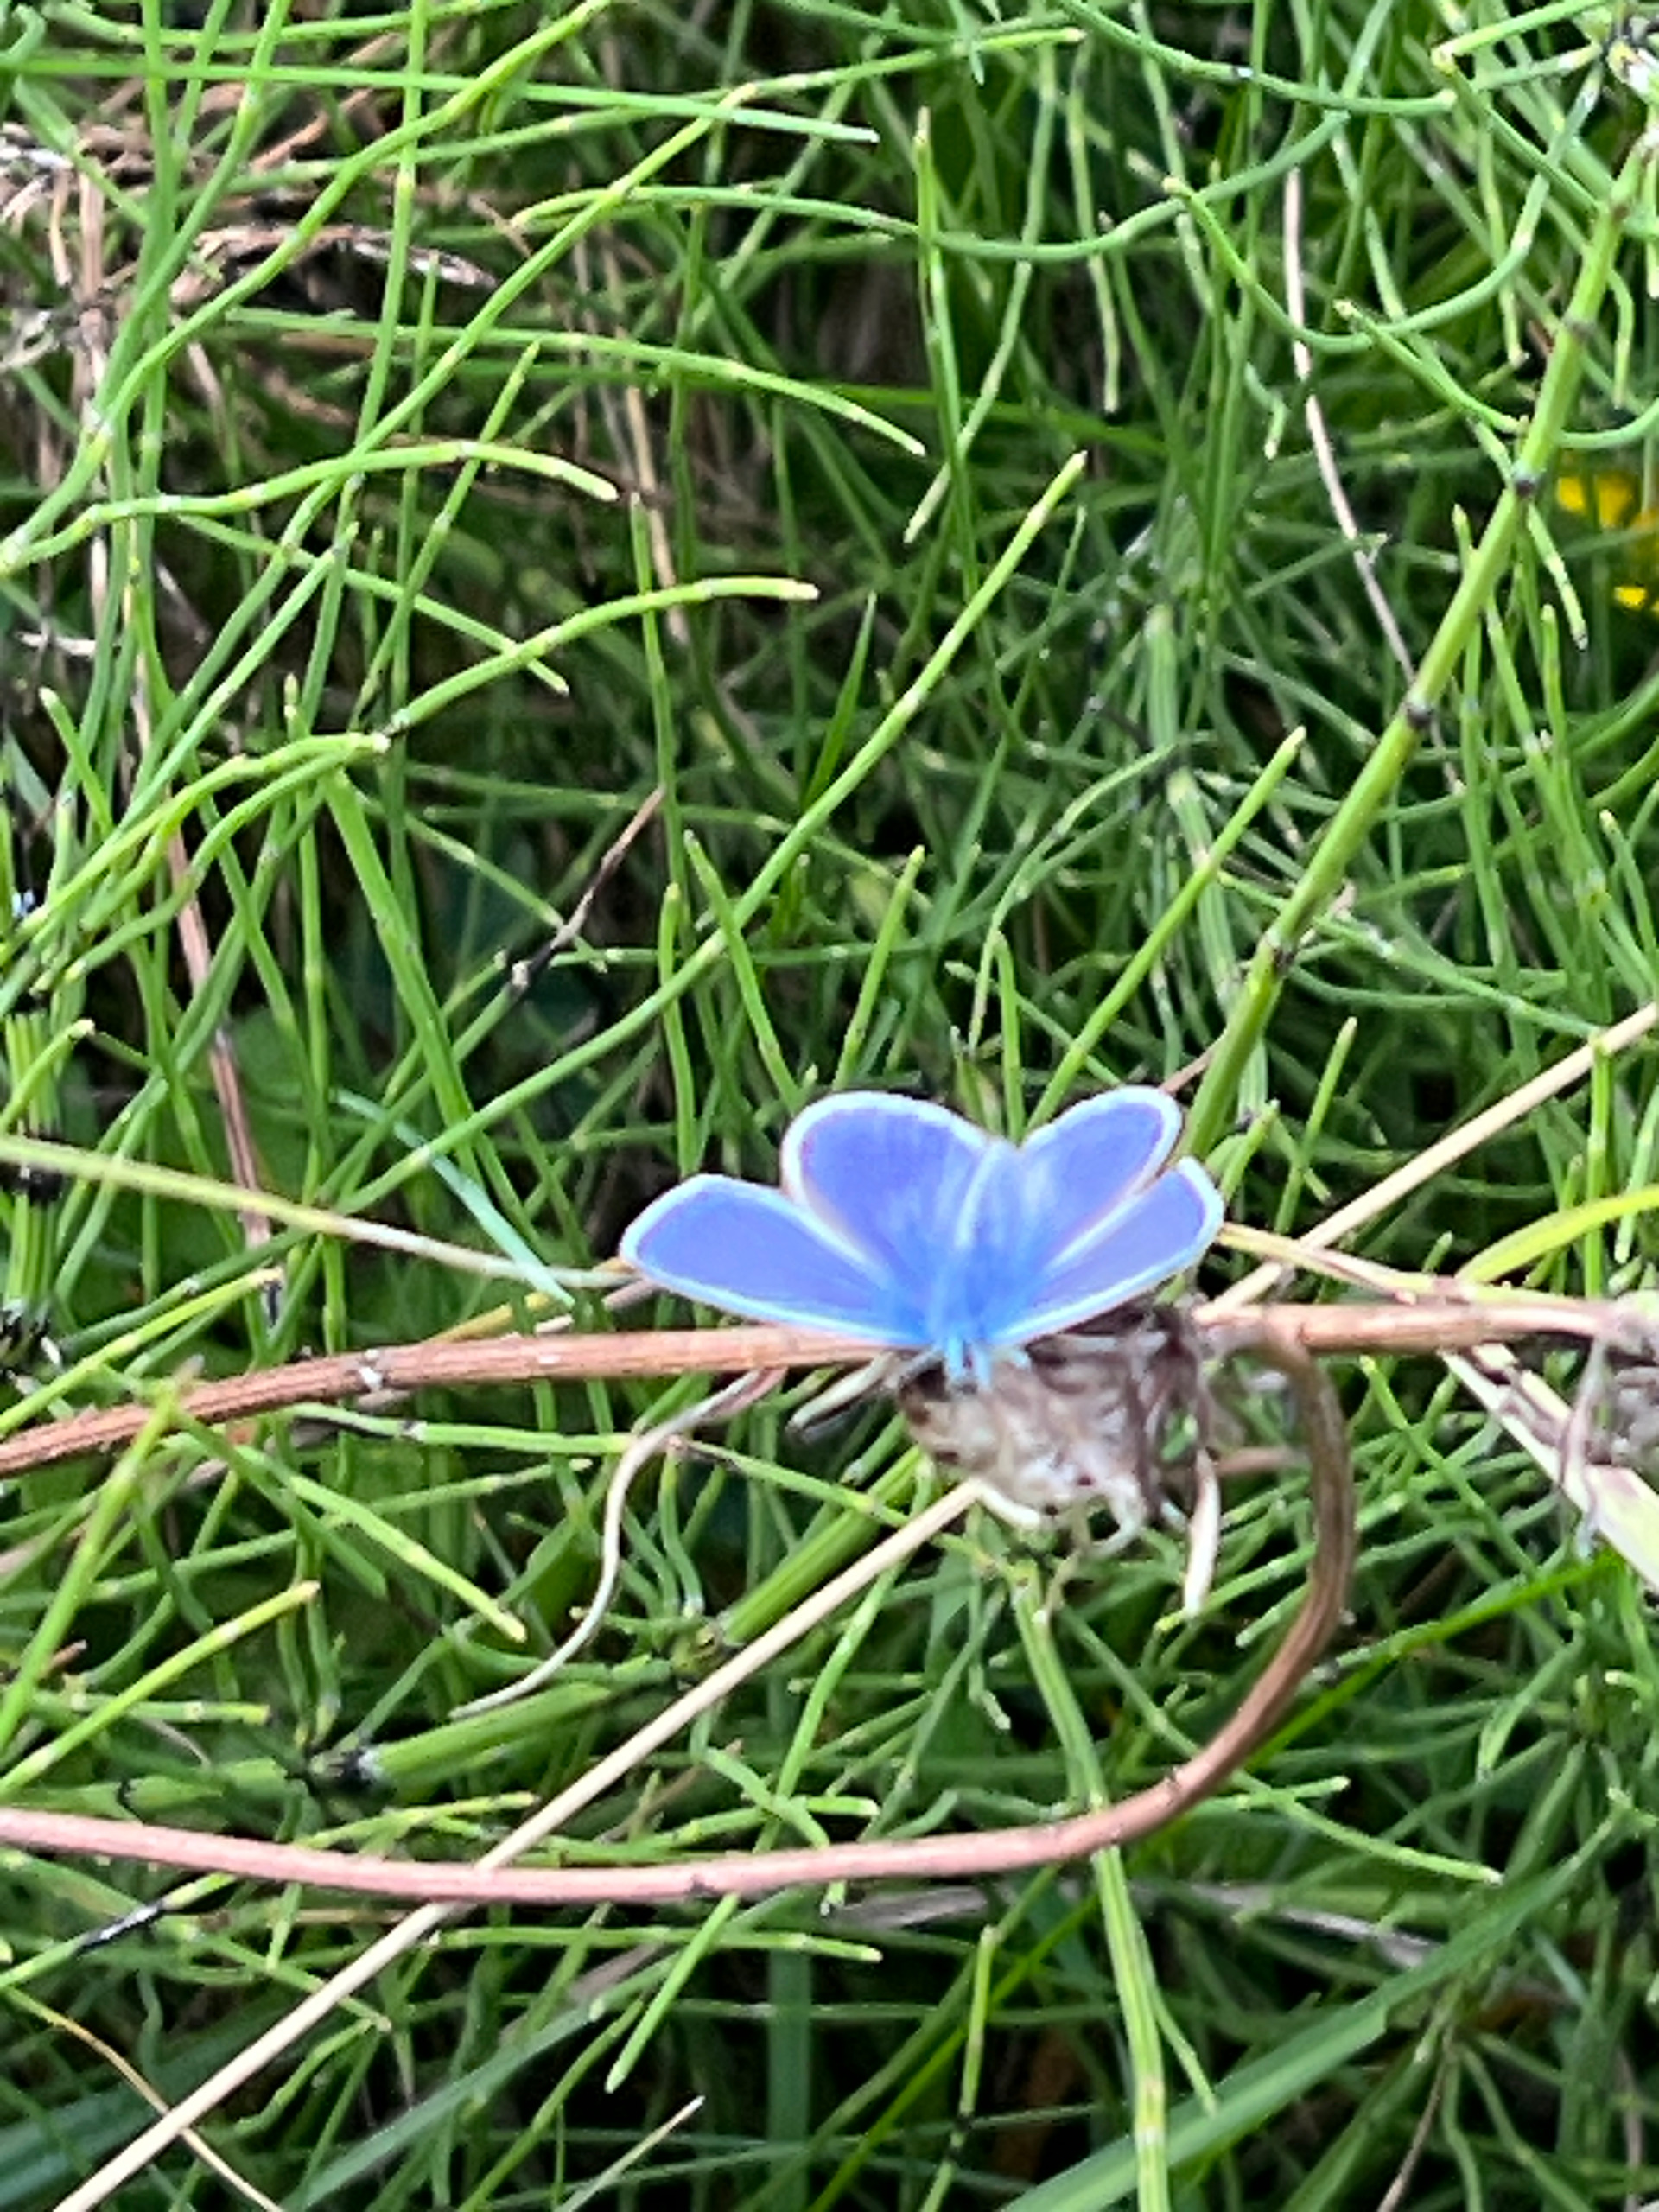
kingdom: Animalia
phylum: Arthropoda
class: Insecta
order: Lepidoptera
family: Lycaenidae
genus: Polyommatus
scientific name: Polyommatus icarus
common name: Almindelig blåfugl
